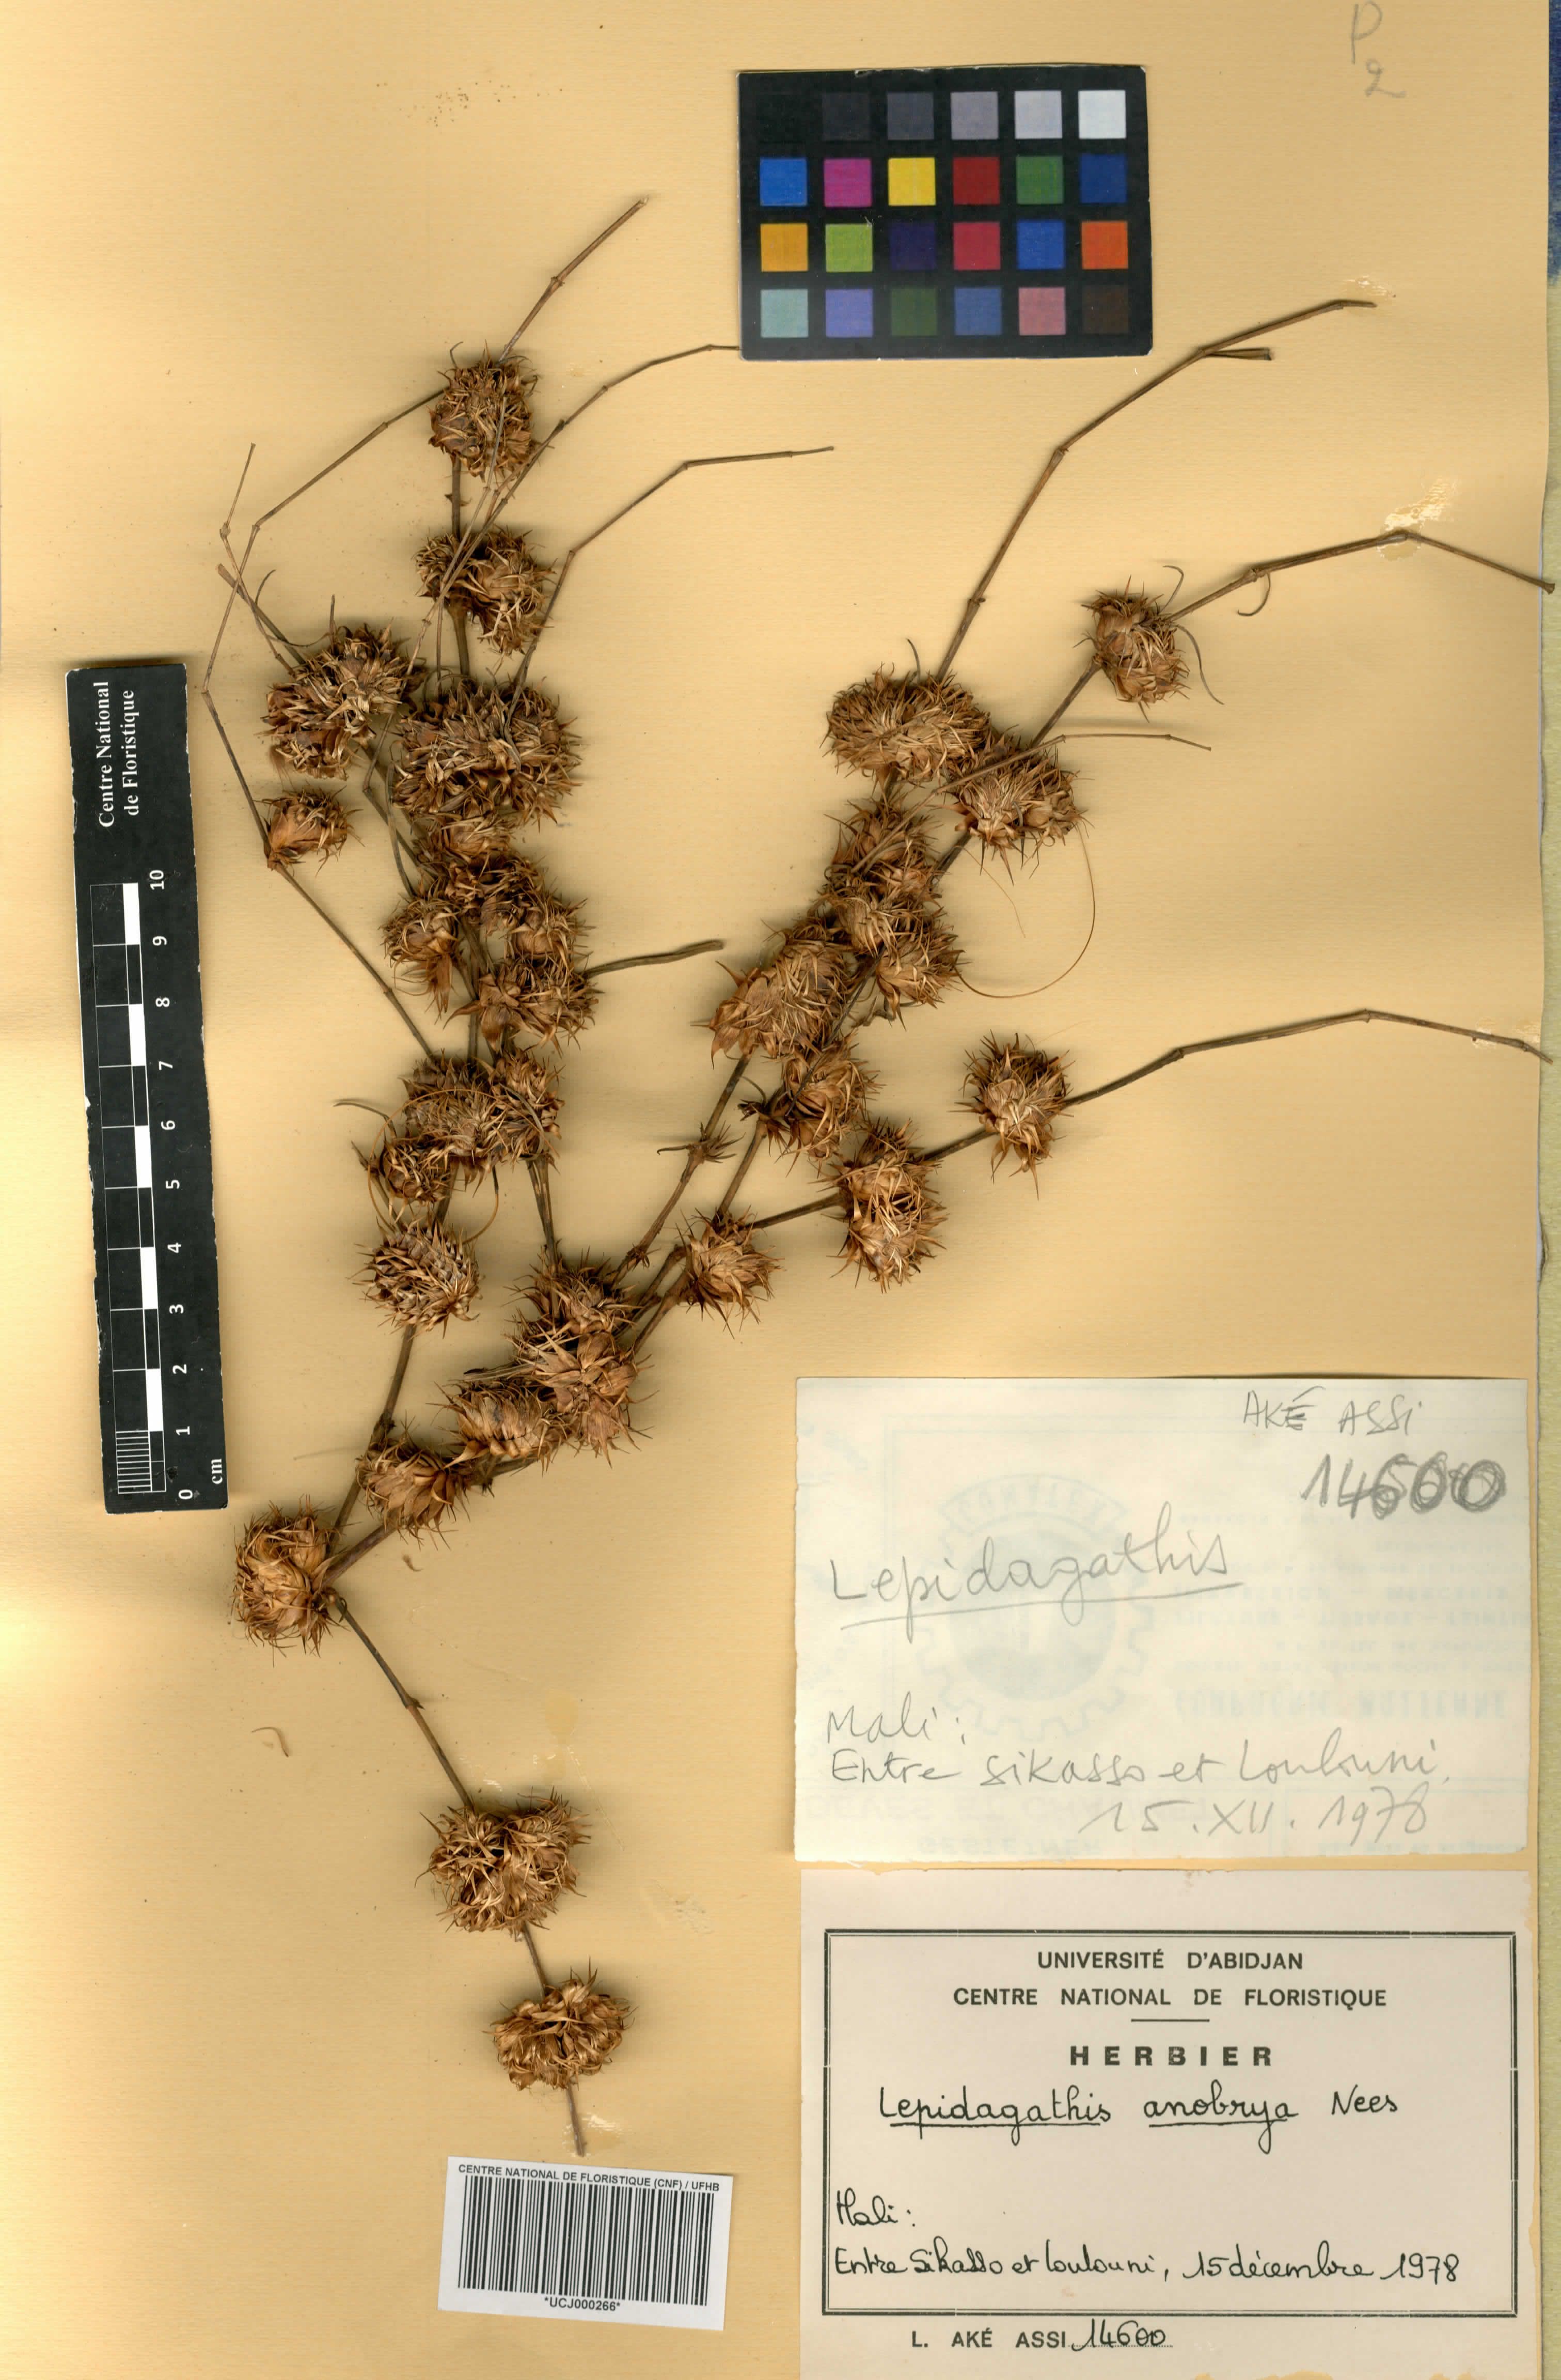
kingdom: Plantae
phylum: Tracheophyta
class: Magnoliopsida
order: Lamiales
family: Acanthaceae
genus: Lepidagathis
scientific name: Lepidagathis anobrya
